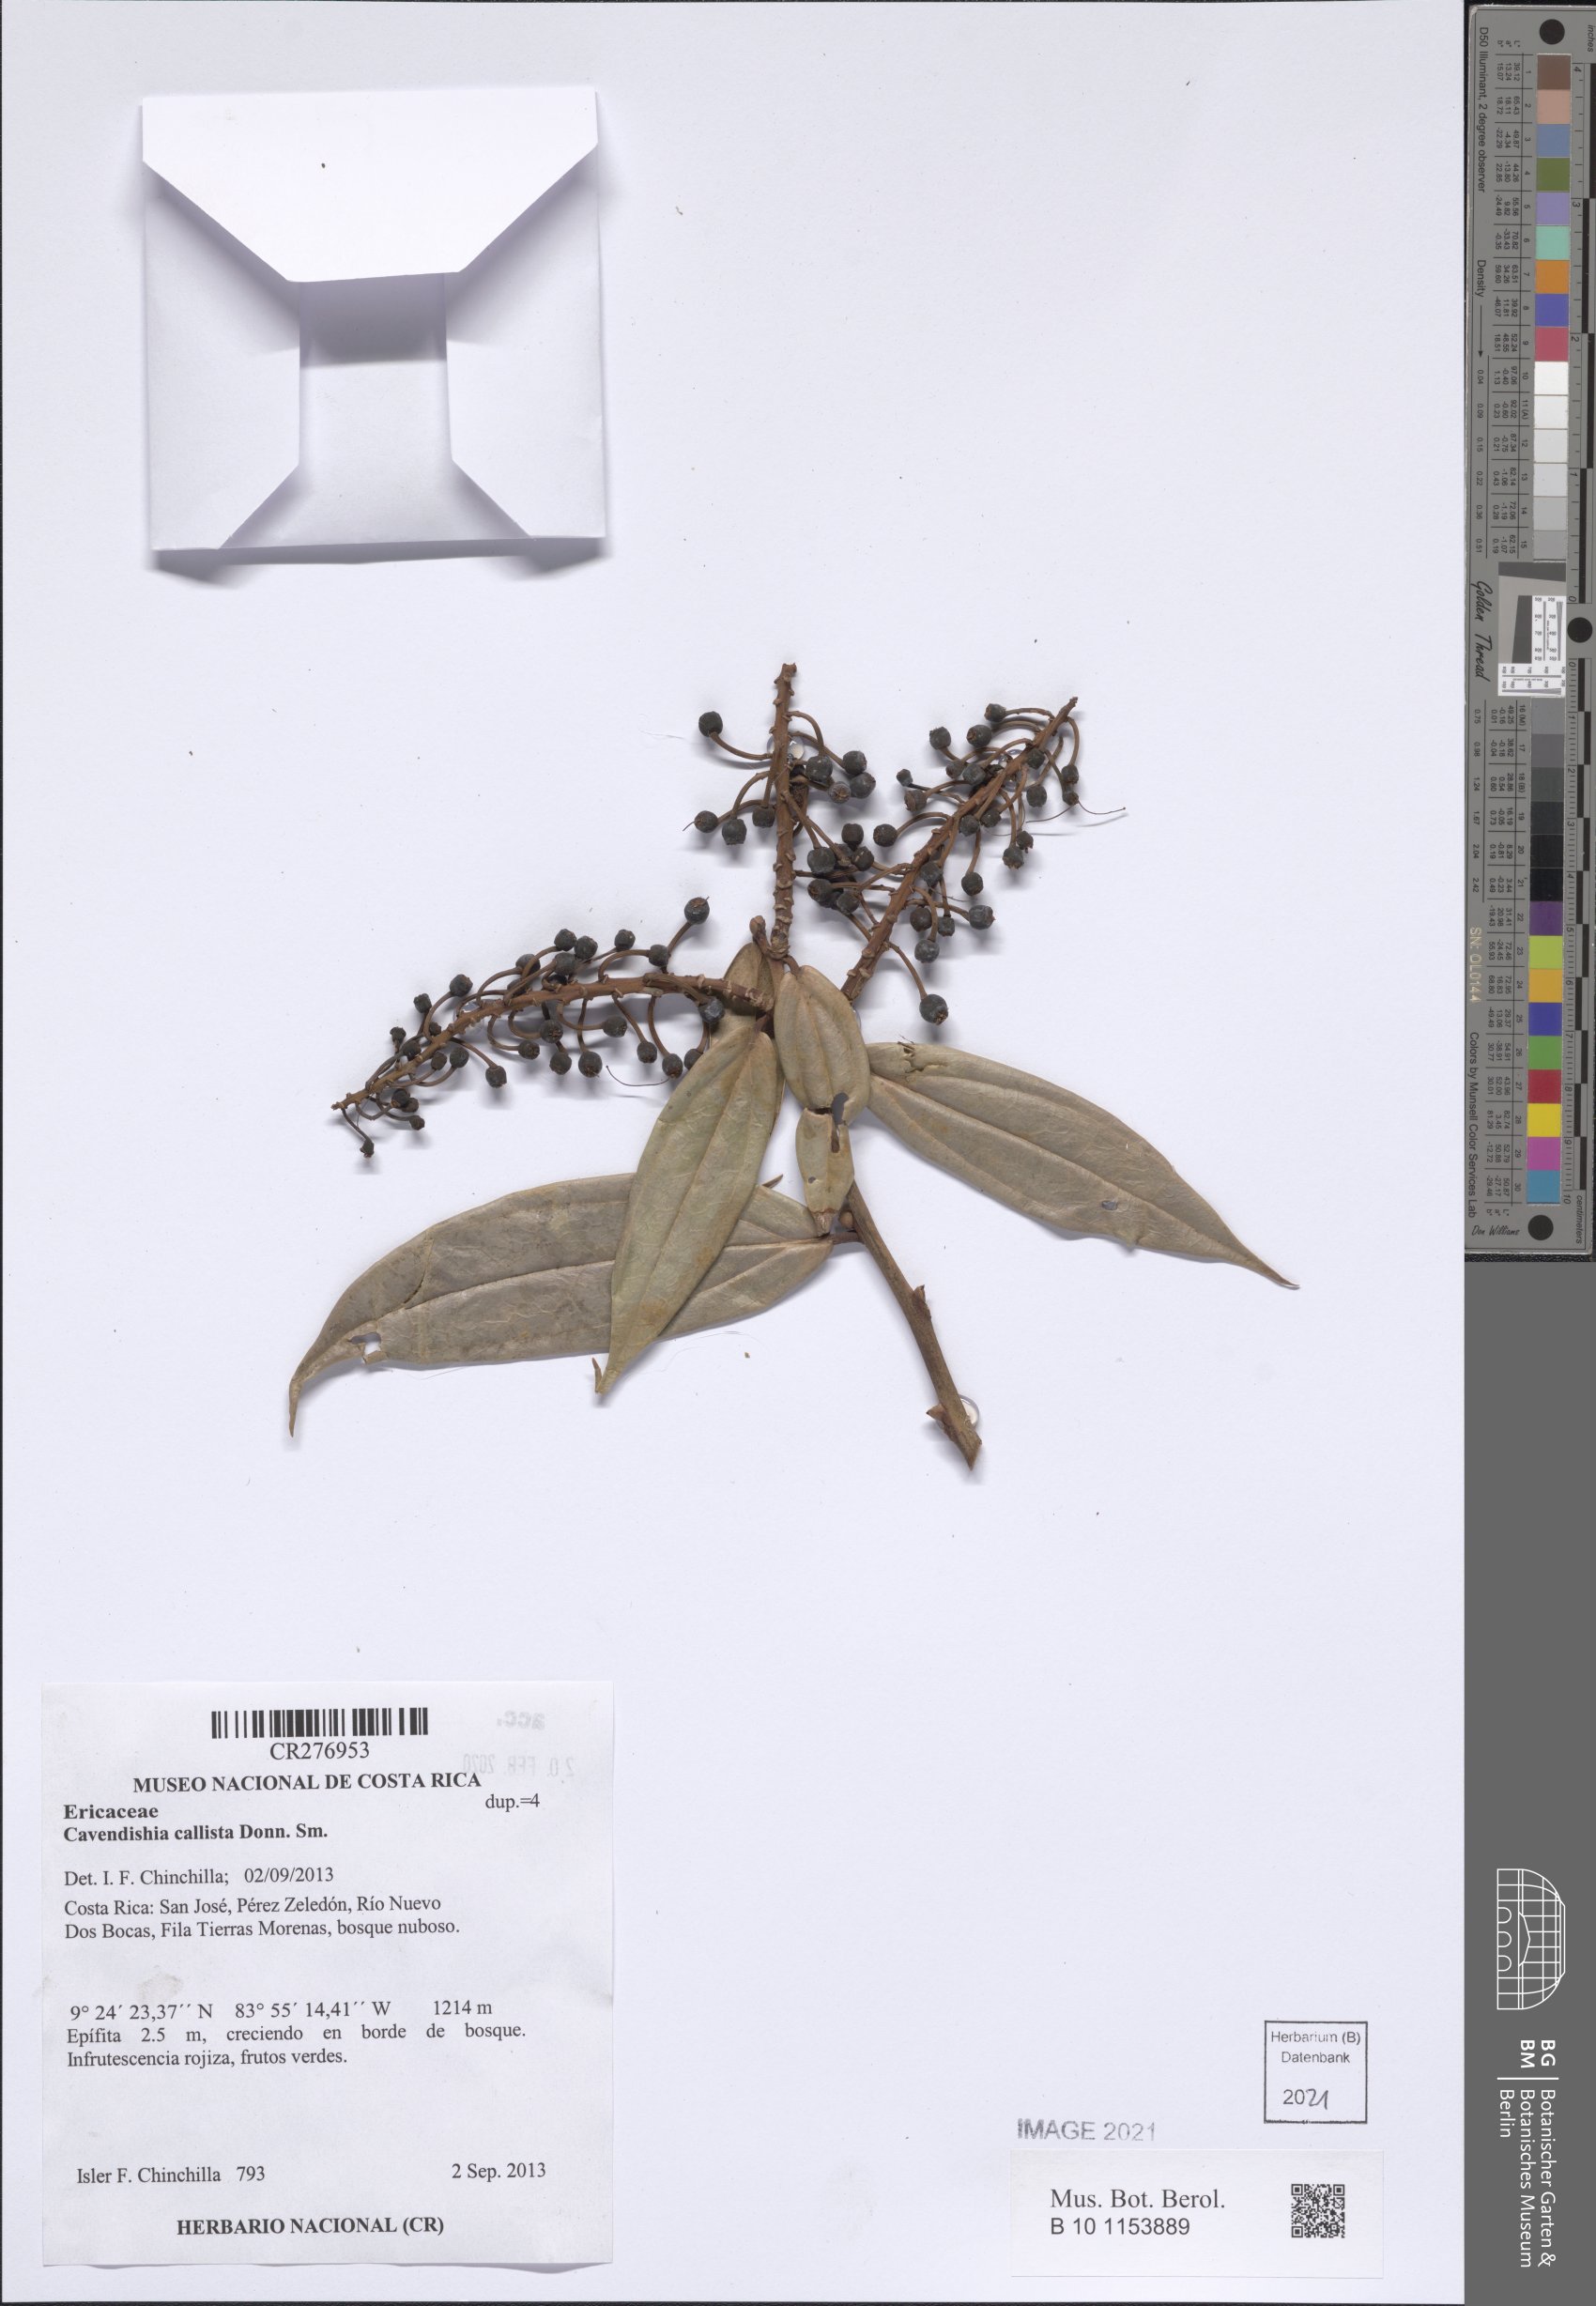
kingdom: Plantae
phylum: Tracheophyta
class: Magnoliopsida
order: Ericales
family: Ericaceae
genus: Cavendishia
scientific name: Cavendishia callista
